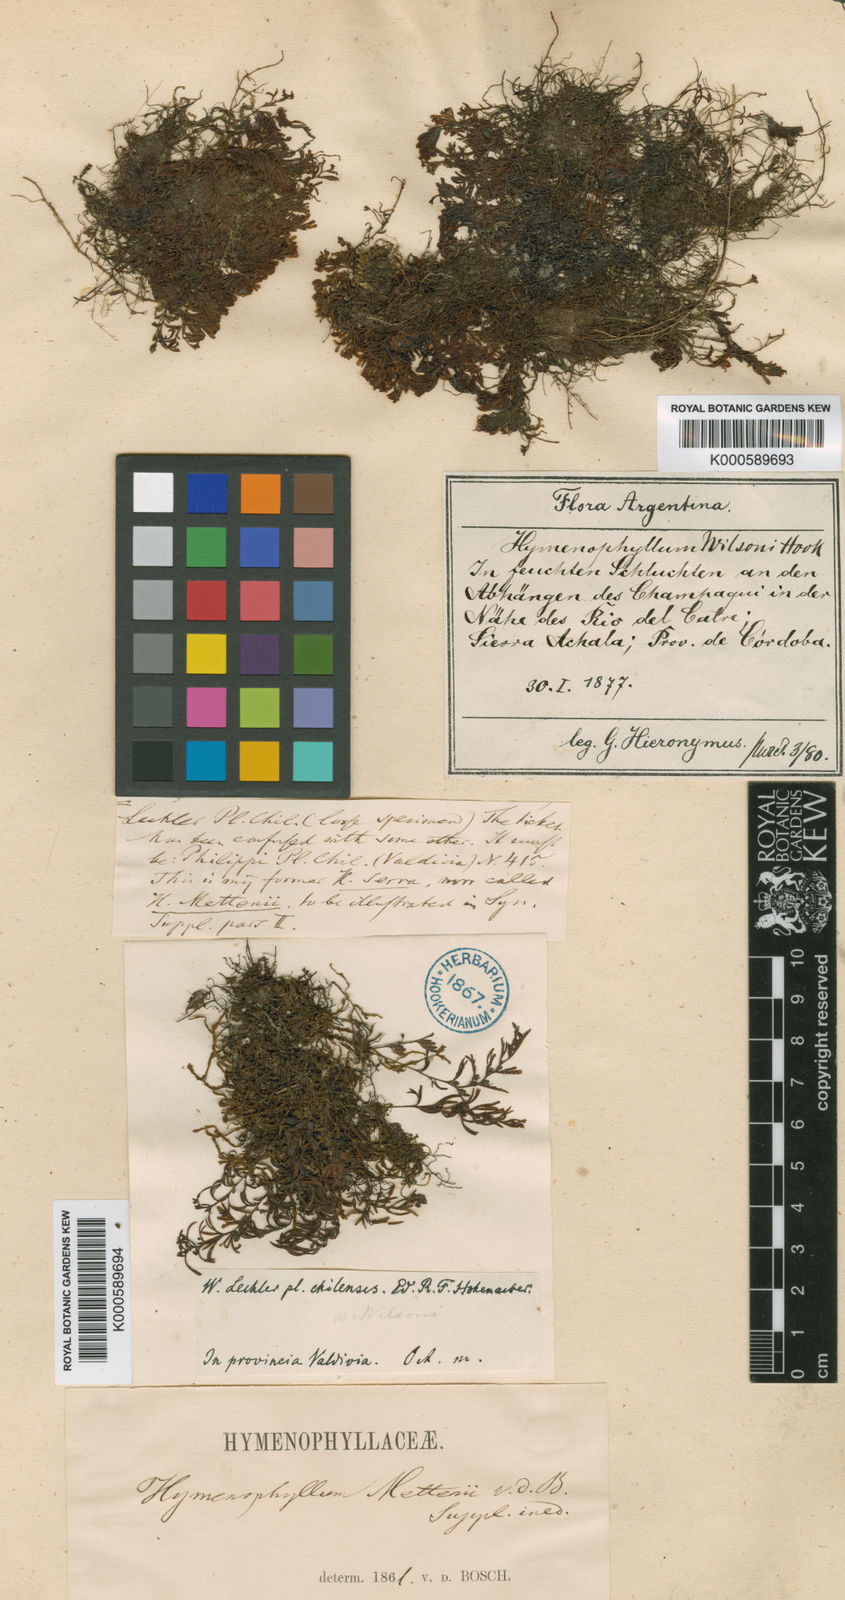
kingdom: Plantae
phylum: Tracheophyta
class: Polypodiopsida
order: Hymenophyllales
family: Hymenophyllaceae
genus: Hymenophyllum
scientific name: Hymenophyllum peltatum
